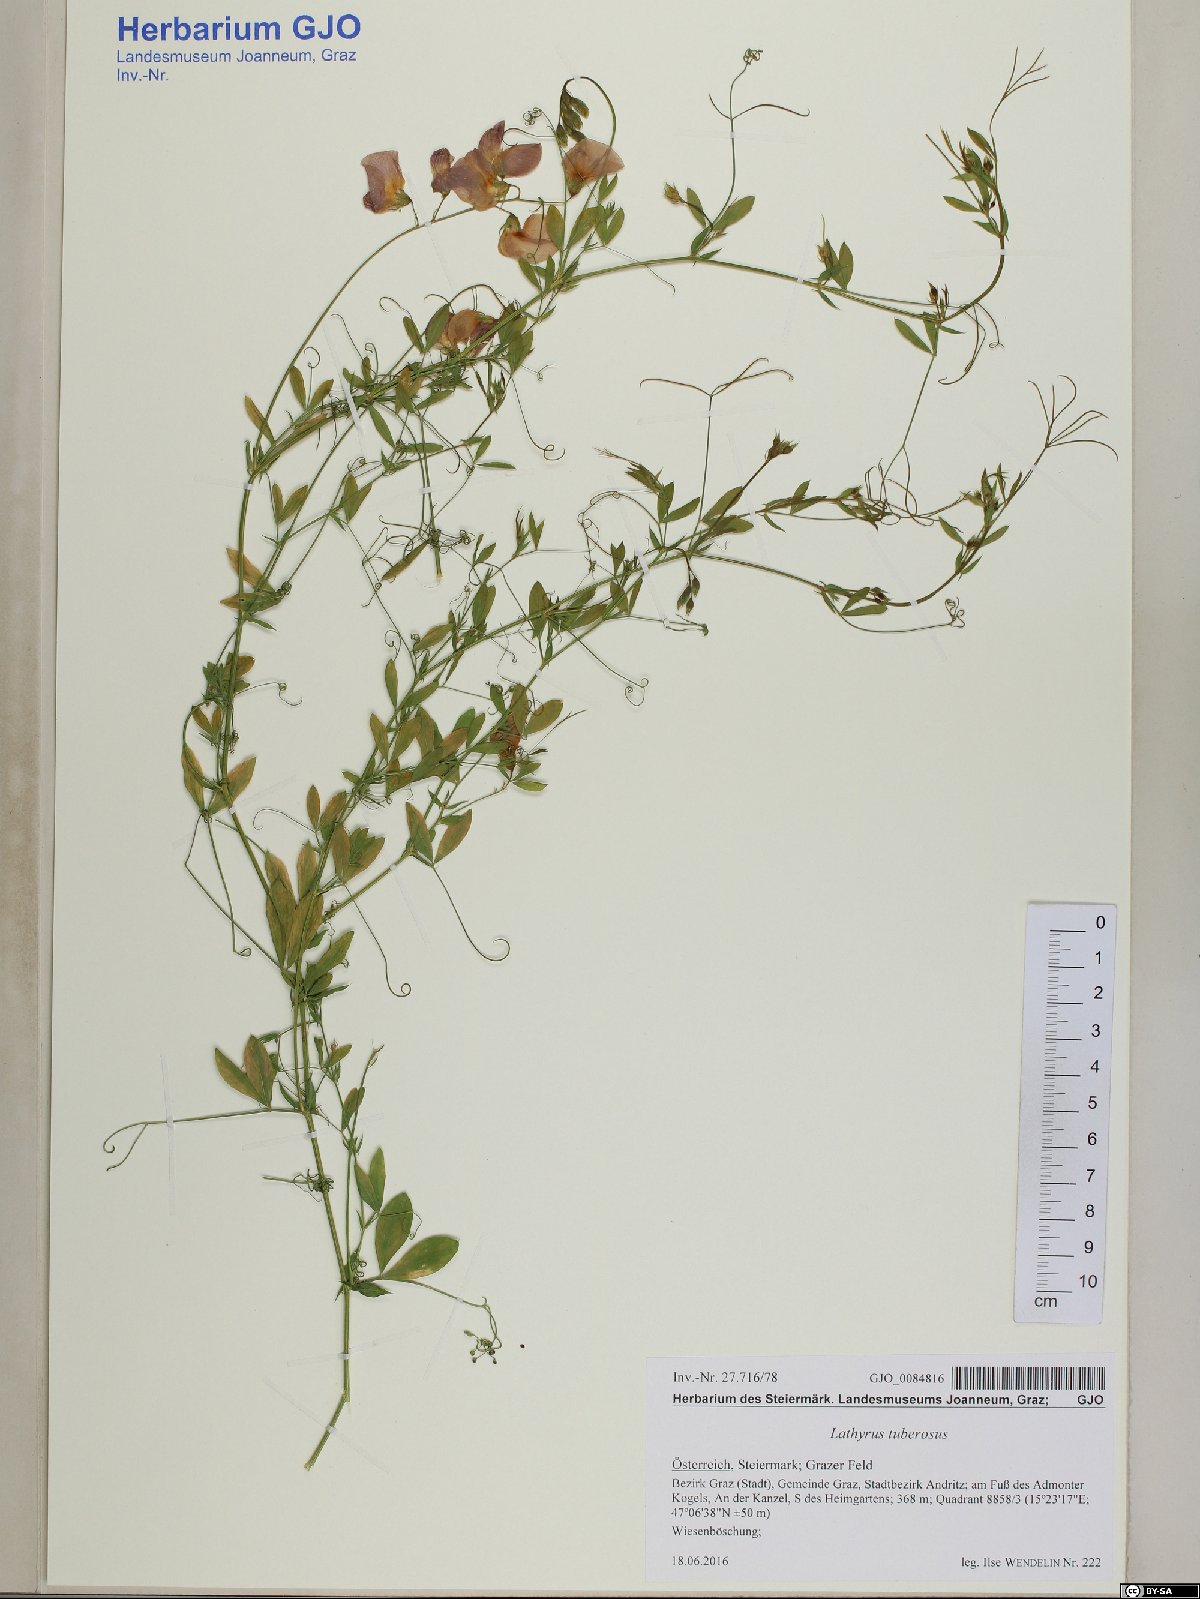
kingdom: Plantae
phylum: Tracheophyta
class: Magnoliopsida
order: Fabales
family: Fabaceae
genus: Lathyrus
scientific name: Lathyrus tuberosus
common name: Tuberous pea
